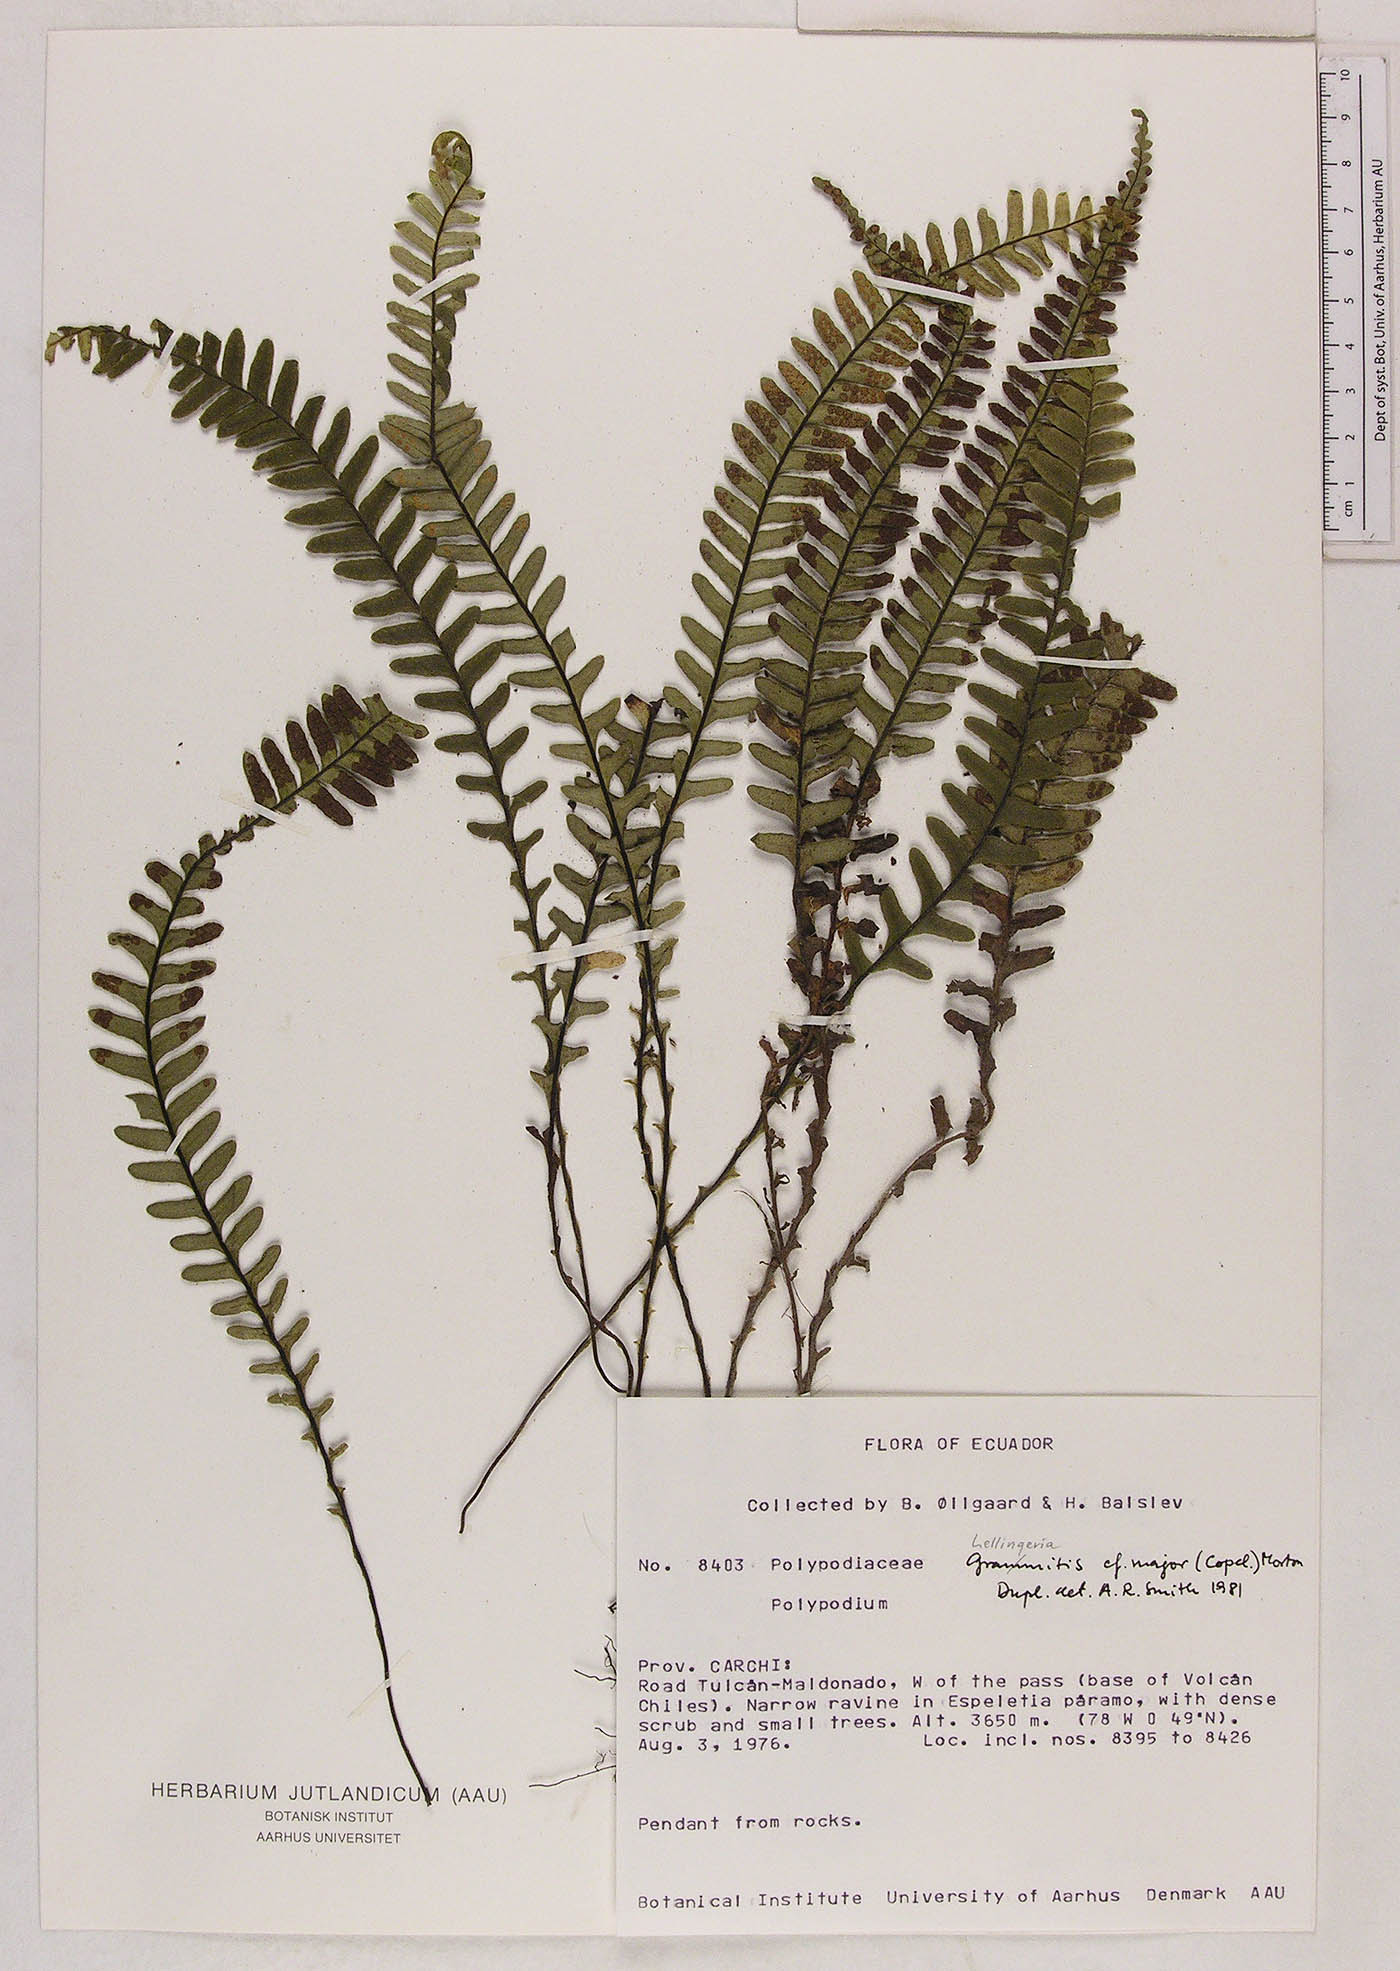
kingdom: Plantae
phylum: Tracheophyta
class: Polypodiopsida
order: Polypodiales
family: Polypodiaceae
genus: Lellingeria
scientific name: Lellingeria paramicola
